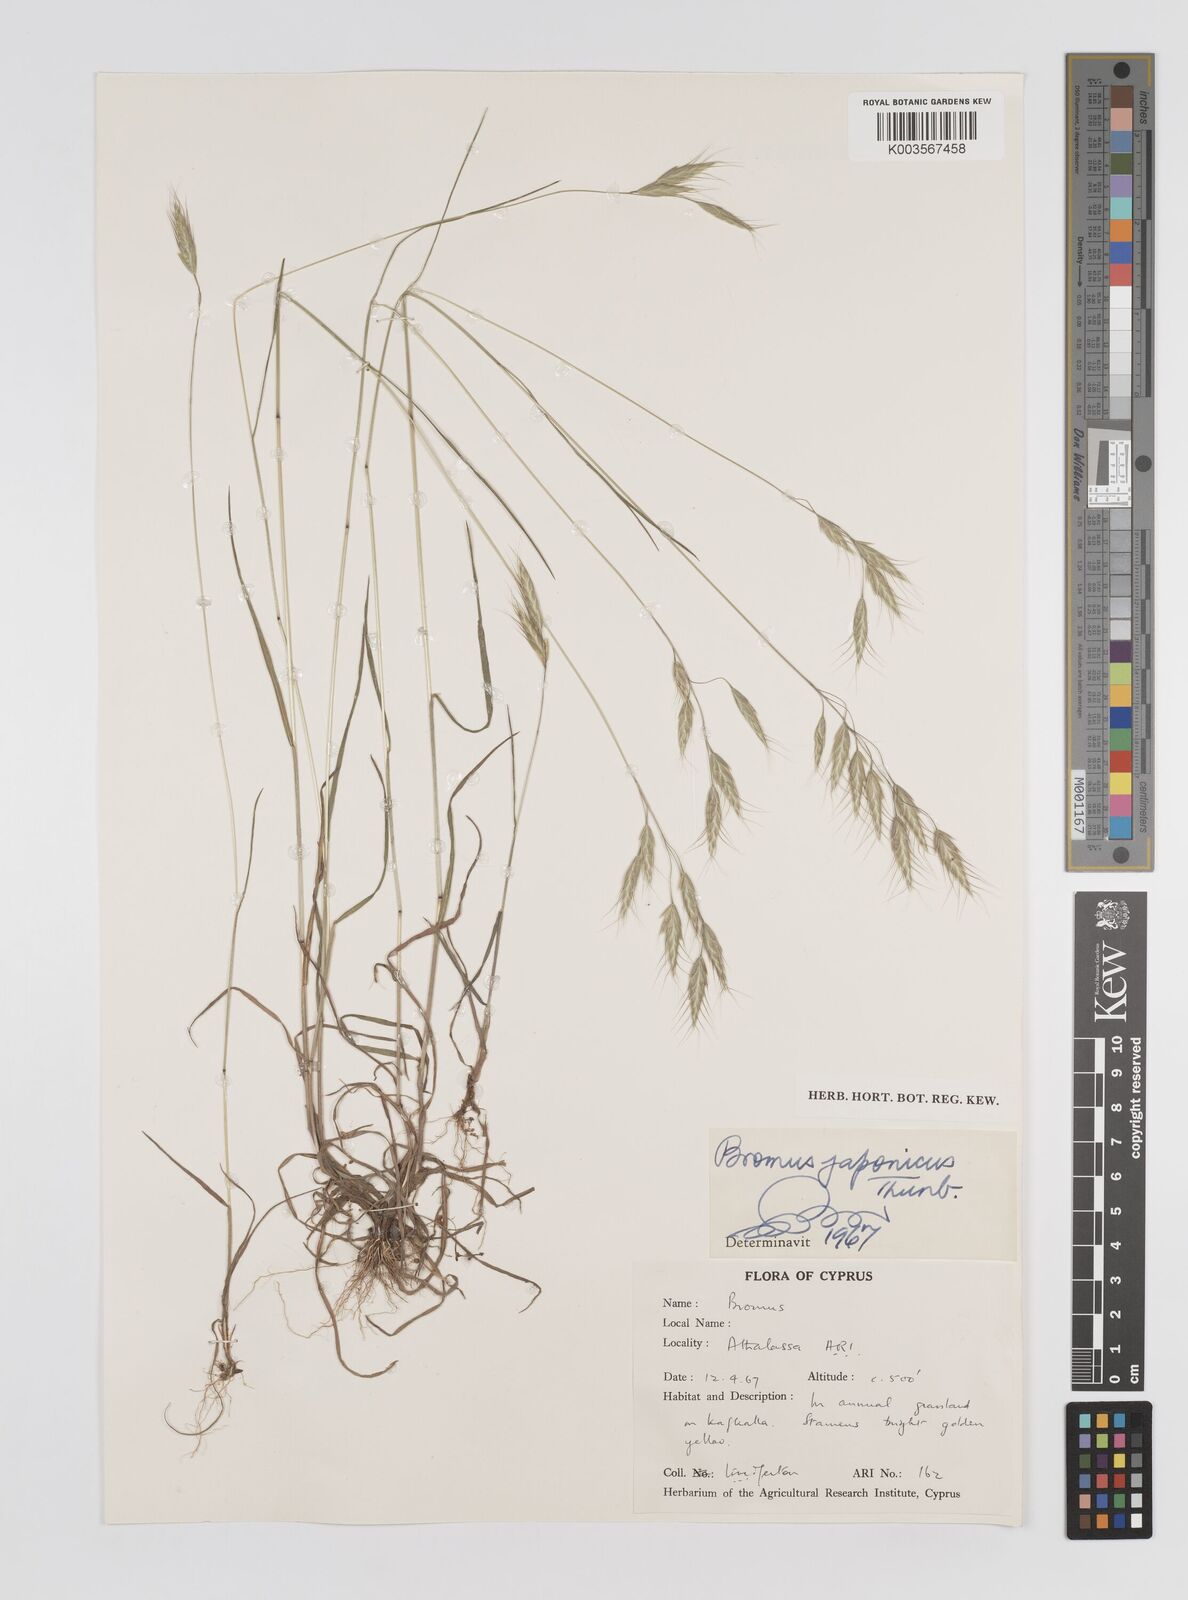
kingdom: Plantae
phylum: Tracheophyta
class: Liliopsida
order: Poales
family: Poaceae
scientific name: Poaceae
